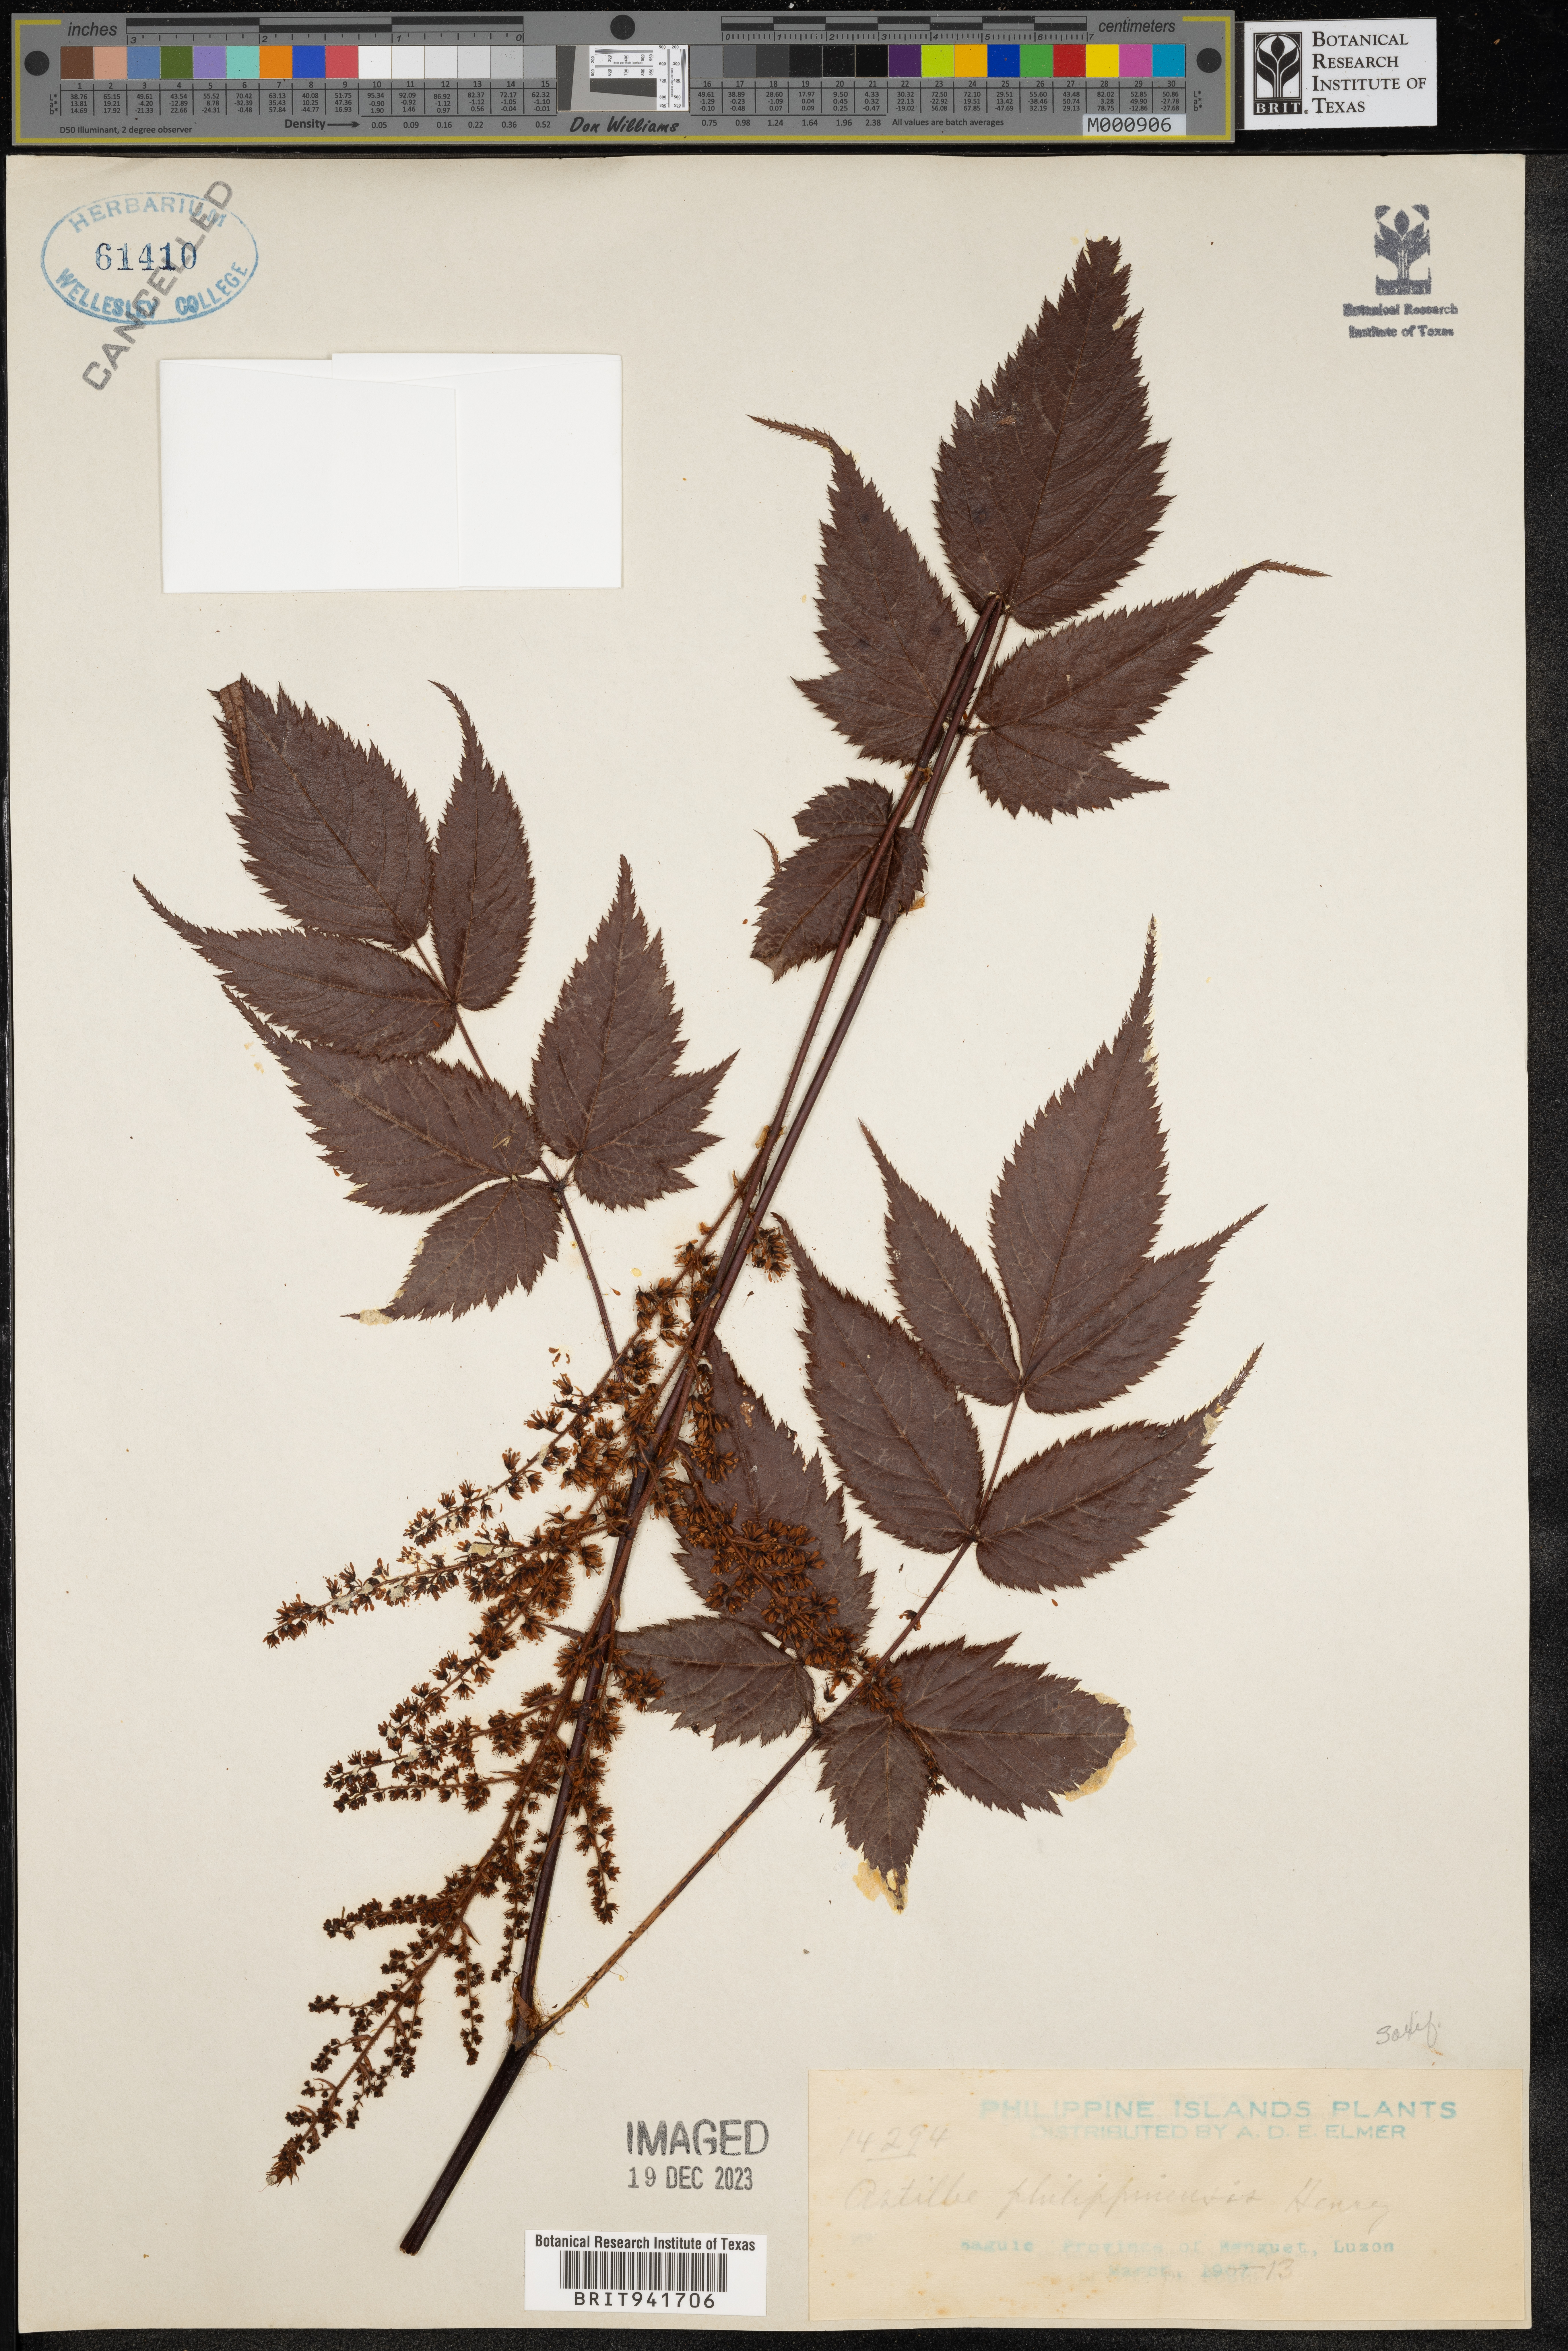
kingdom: Plantae
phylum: Tracheophyta
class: Magnoliopsida
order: Saxifragales
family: Saxifragaceae
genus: Astilbe
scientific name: Astilbe
